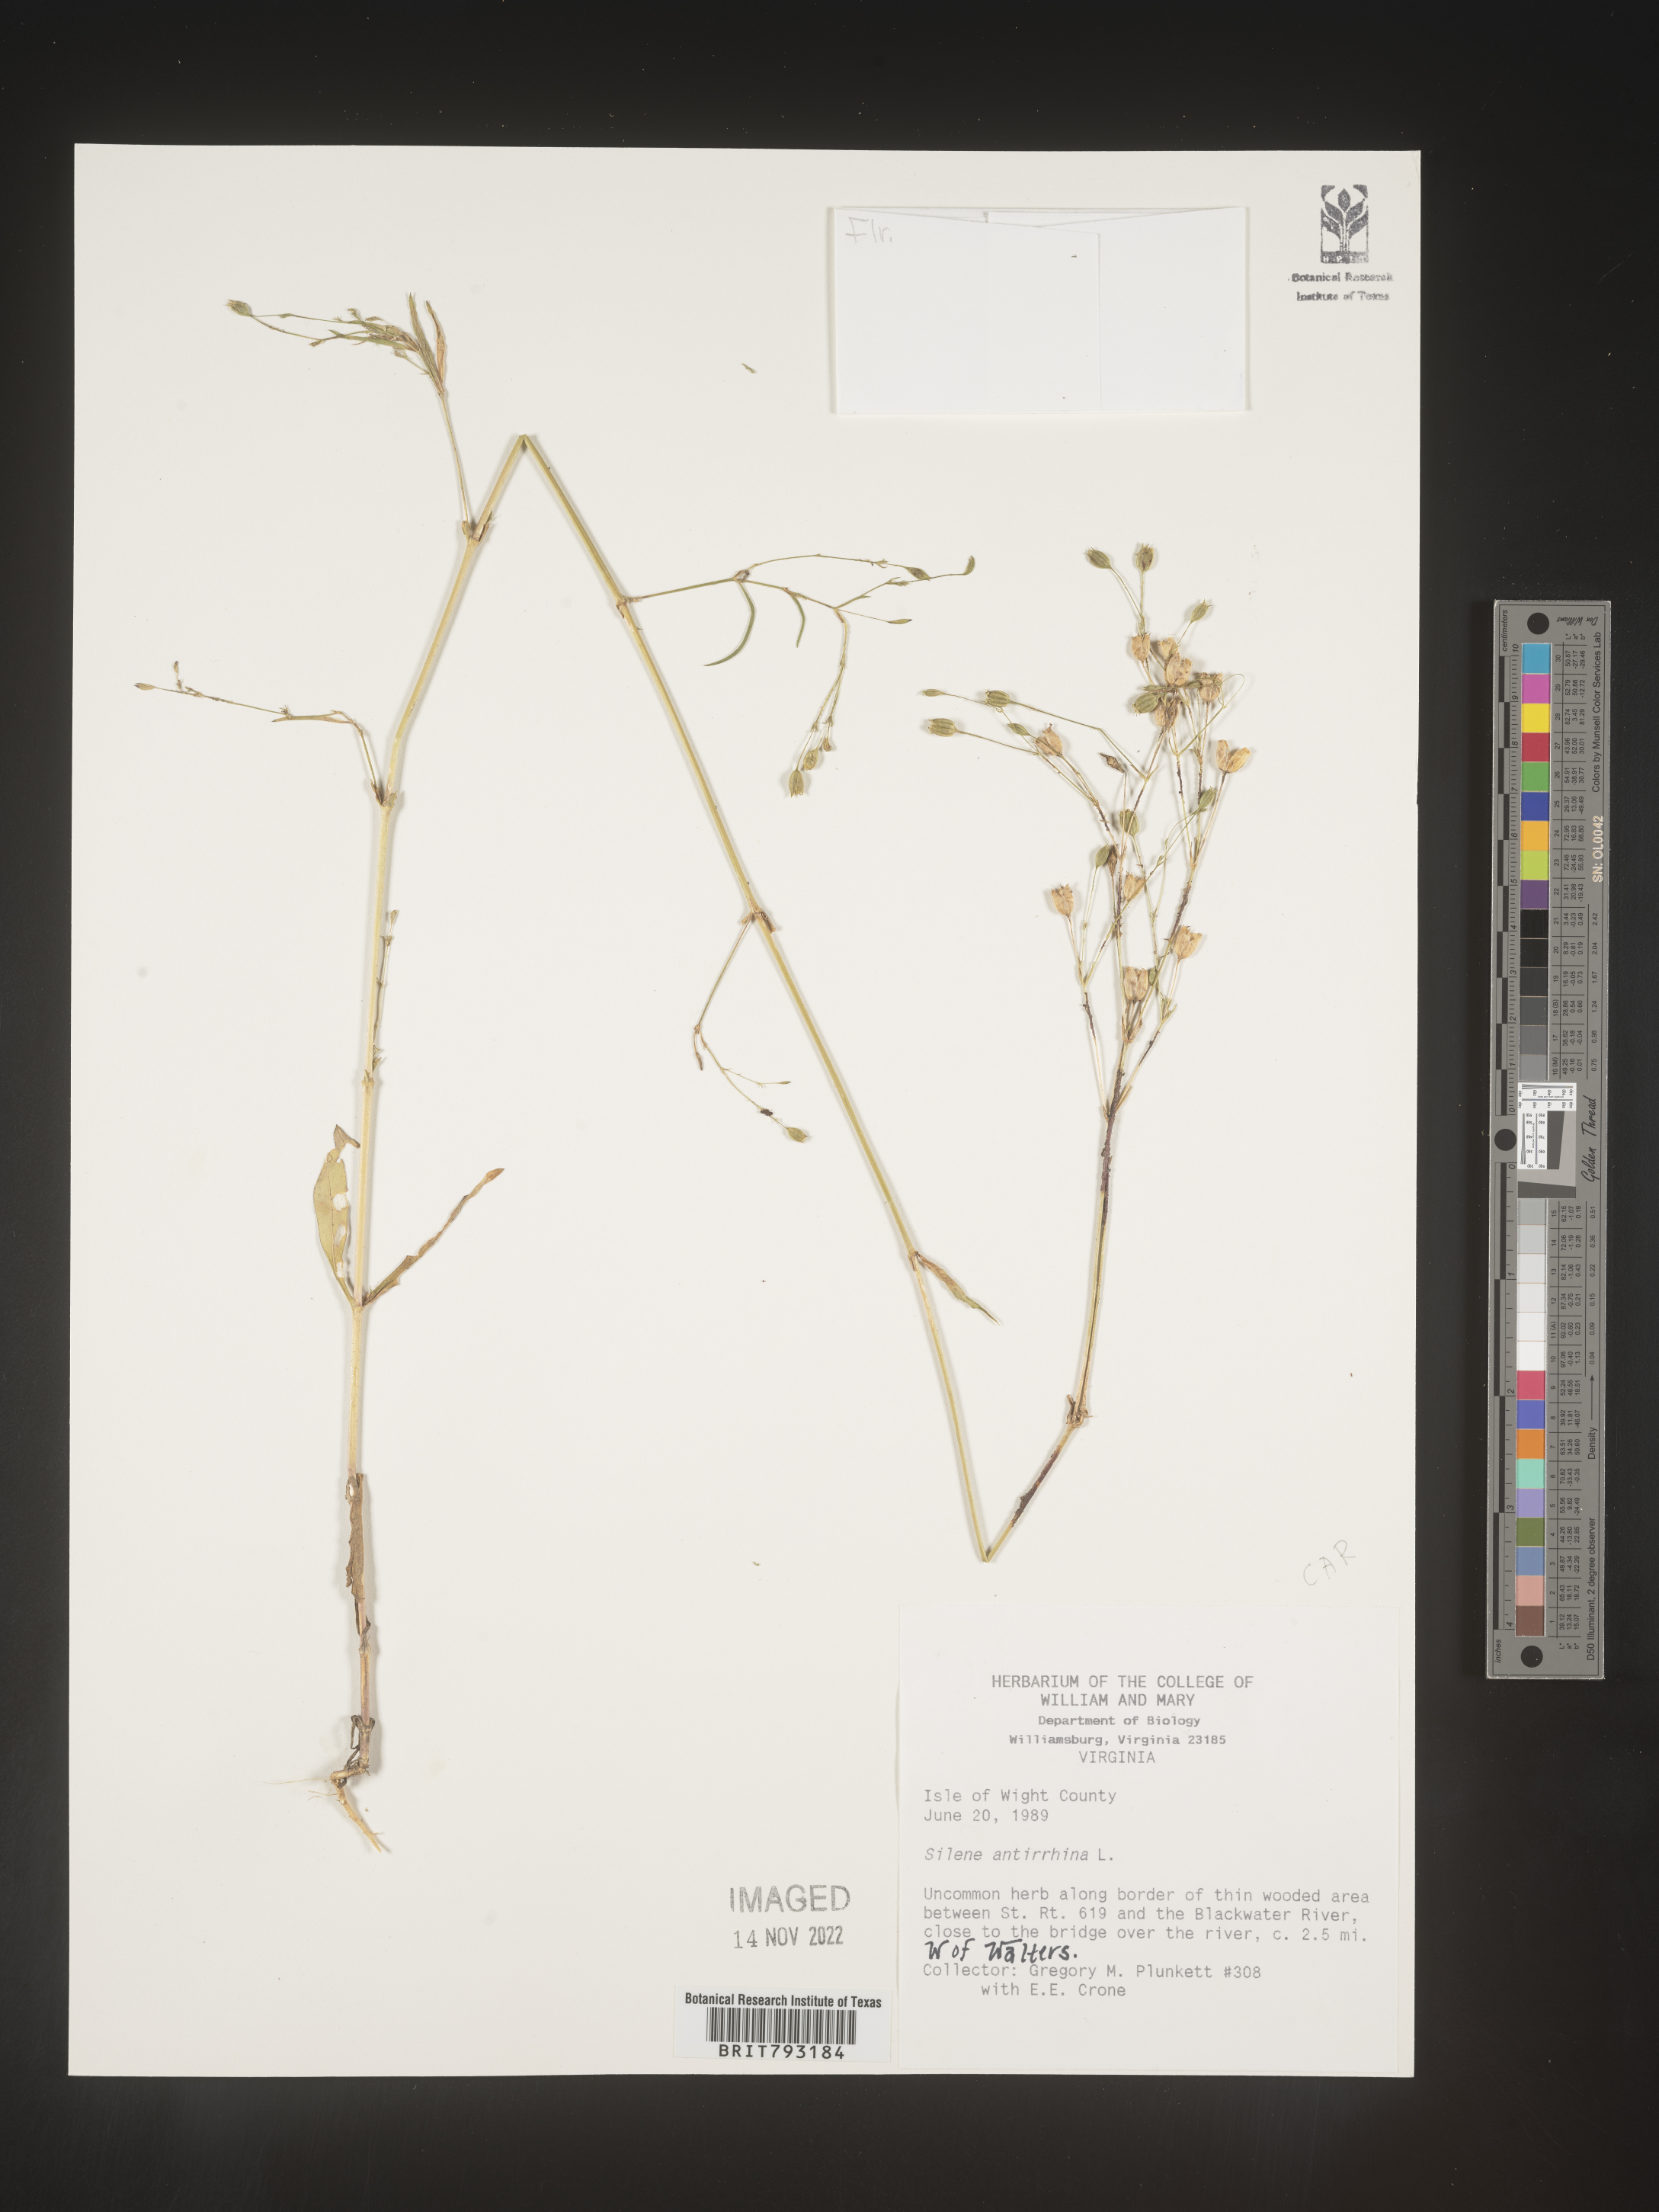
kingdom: Plantae
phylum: Tracheophyta
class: Magnoliopsida
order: Caryophyllales
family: Caryophyllaceae
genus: Silene
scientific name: Silene antirrhina
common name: Sleepy catchfly
